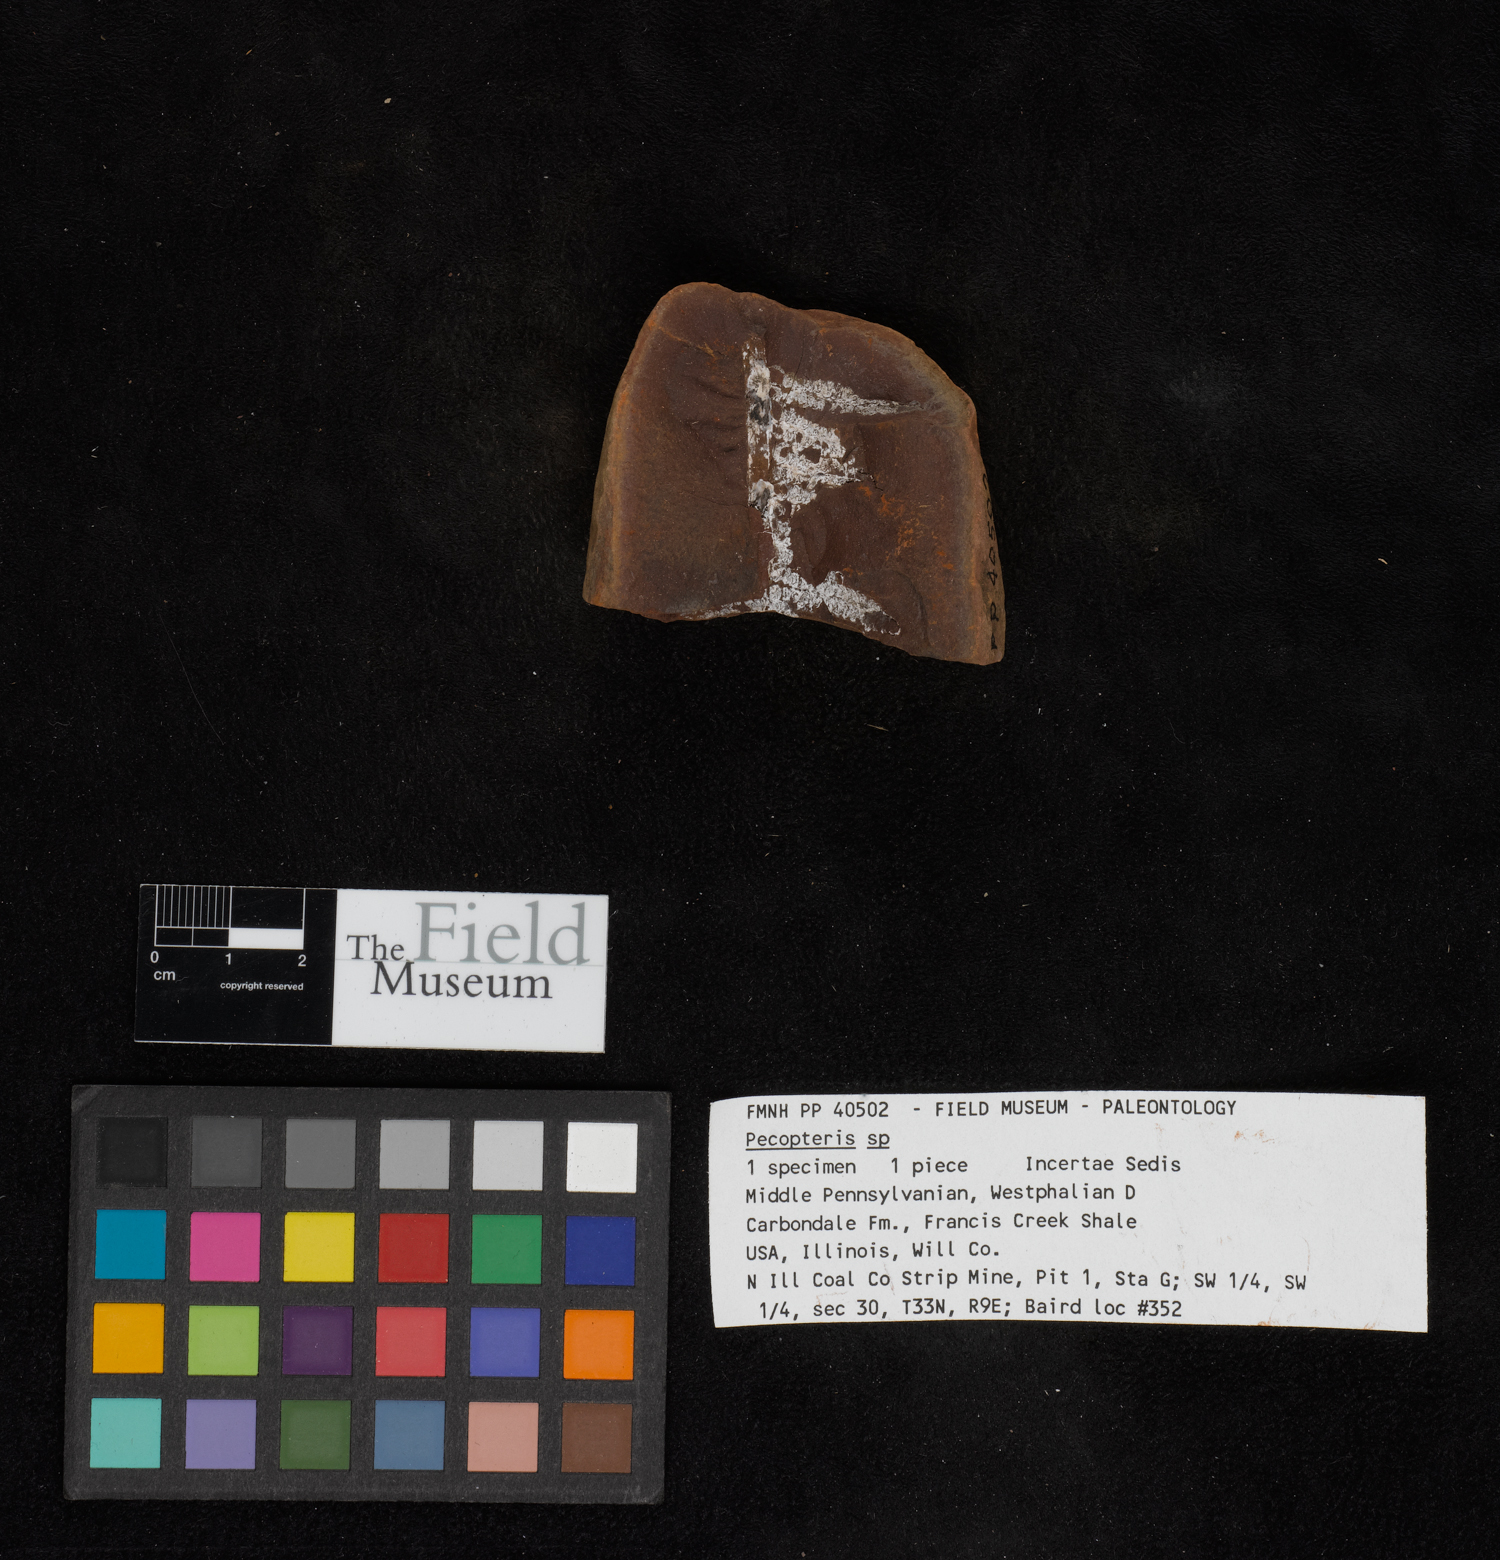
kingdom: Plantae
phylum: Tracheophyta
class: Polypodiopsida
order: Marattiales
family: Asterothecaceae
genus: Pecopteris
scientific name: Pecopteris
